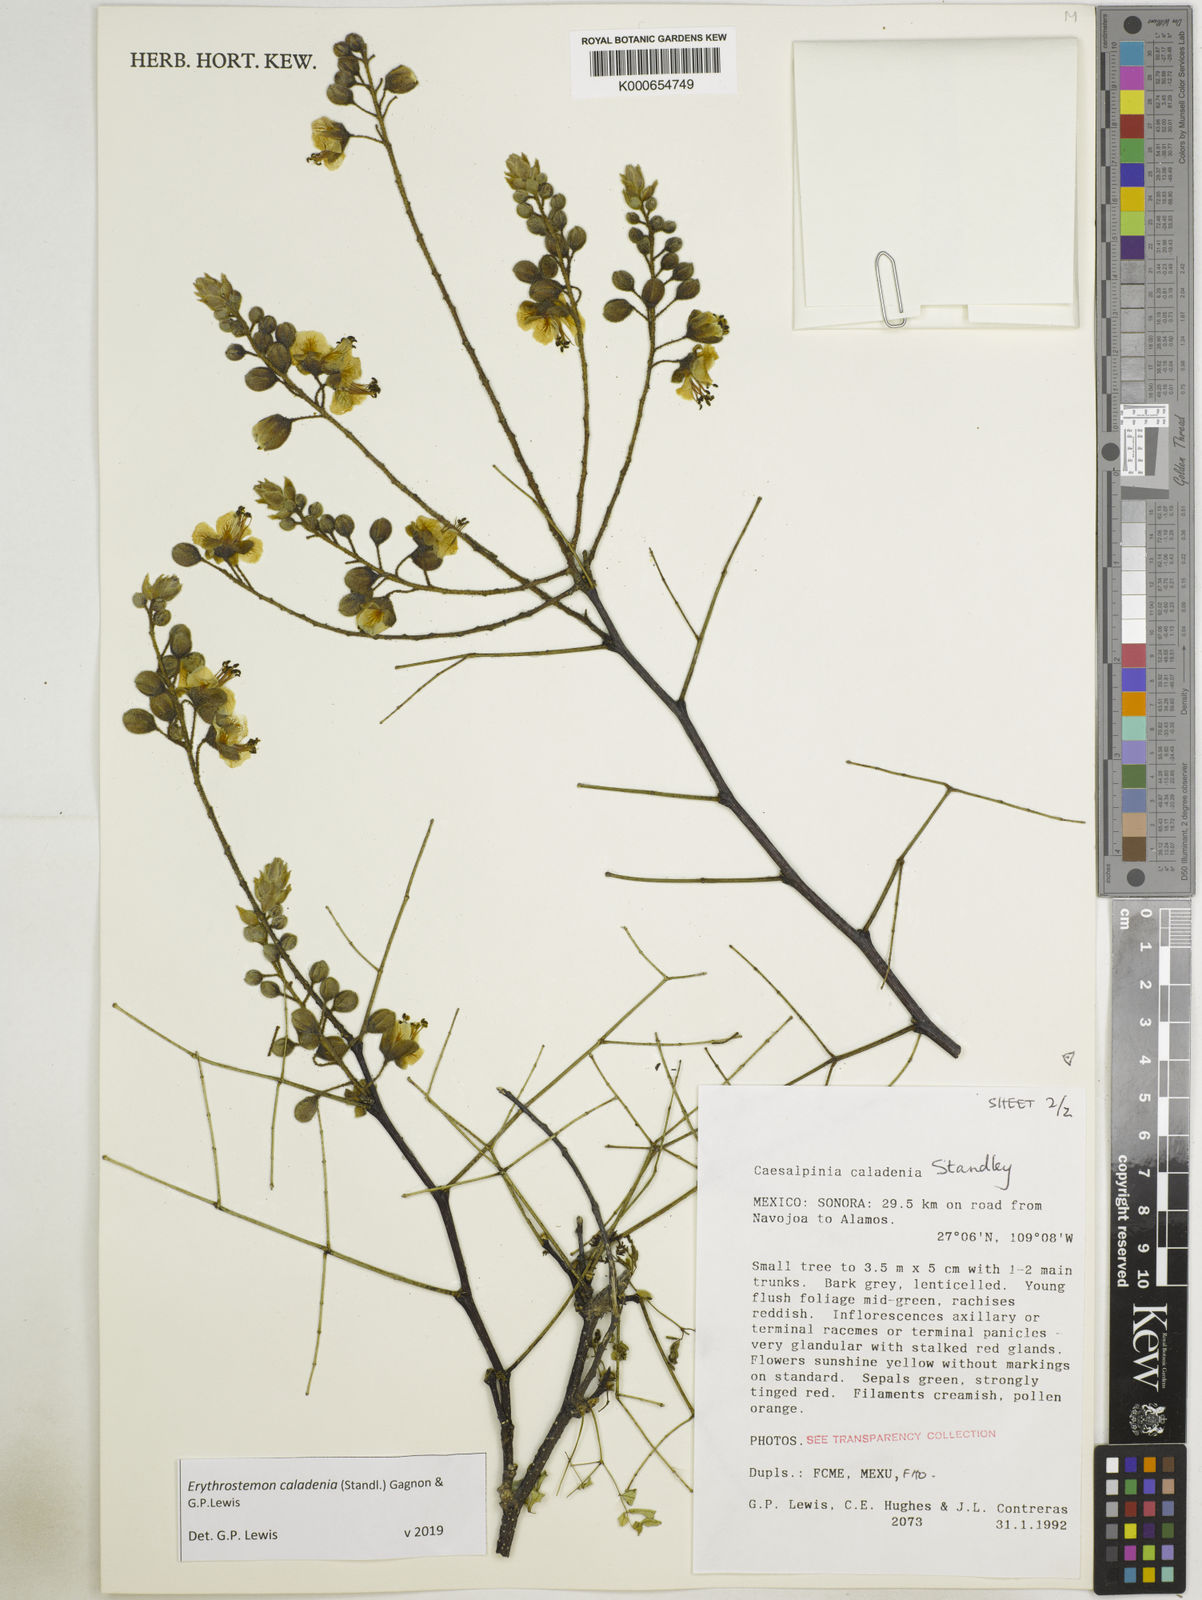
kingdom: Plantae
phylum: Tracheophyta
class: Magnoliopsida
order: Fabales
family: Fabaceae
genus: Erythrostemon
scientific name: Erythrostemon caladenia
